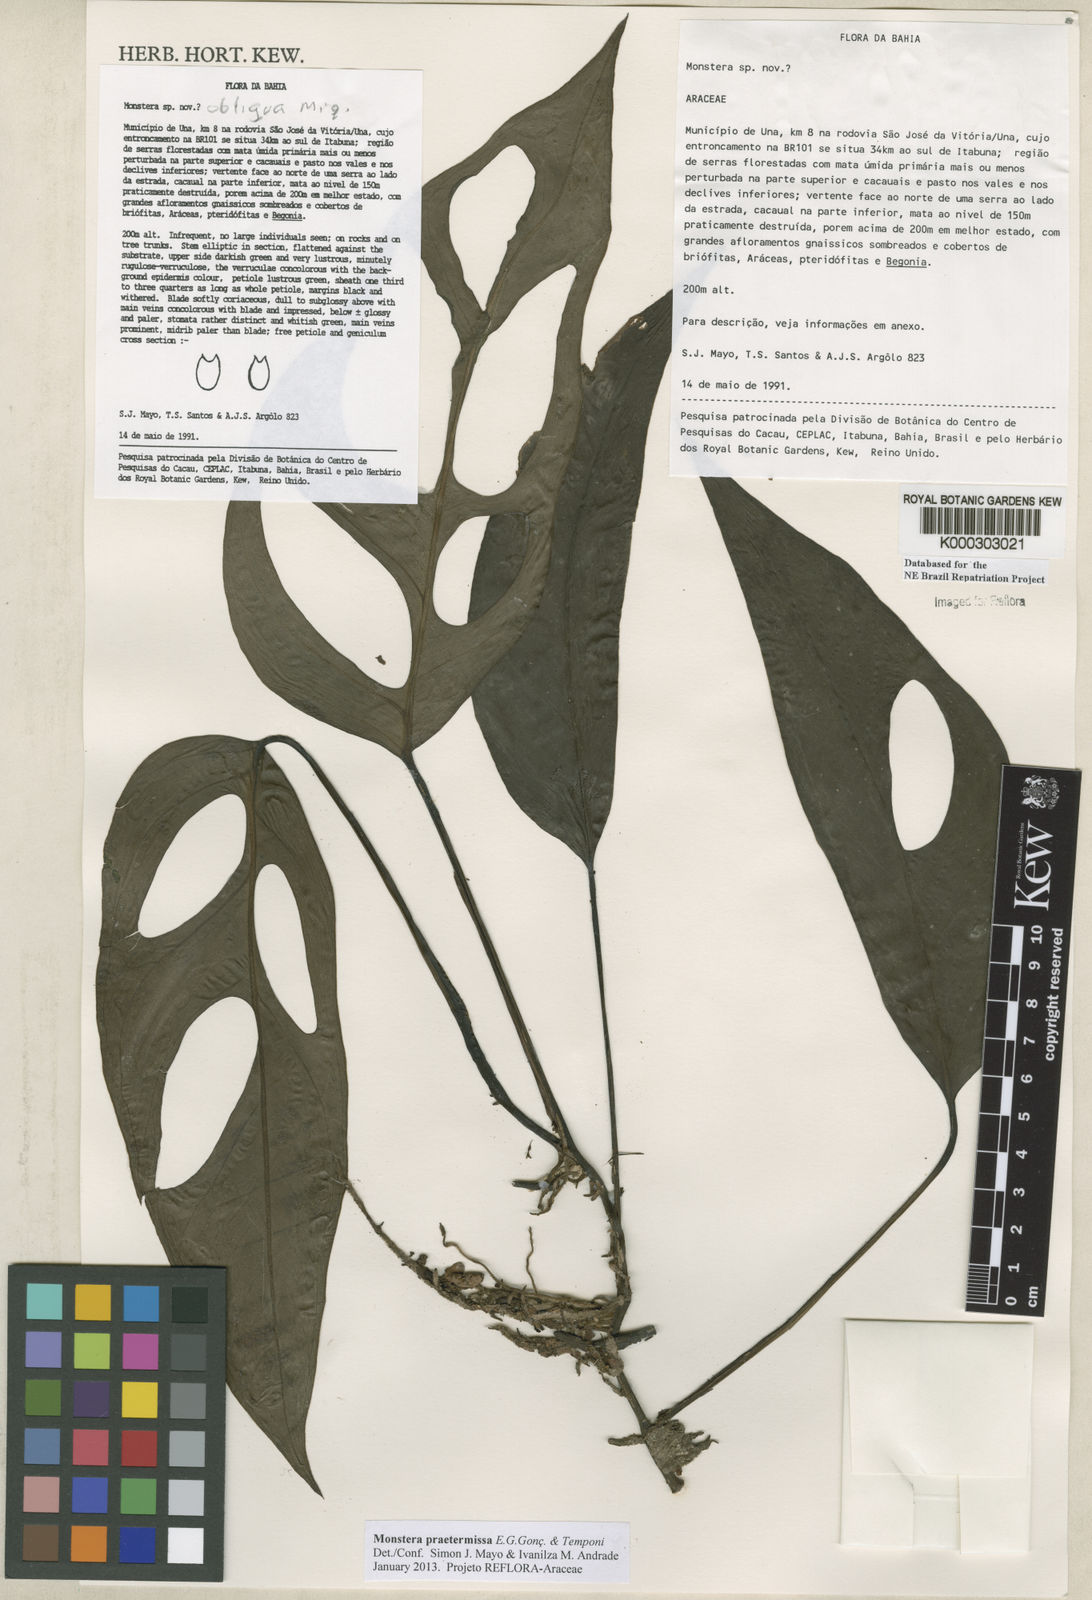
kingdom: Plantae
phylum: Tracheophyta
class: Liliopsida
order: Alismatales
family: Araceae
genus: Monstera
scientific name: Monstera obliqua
